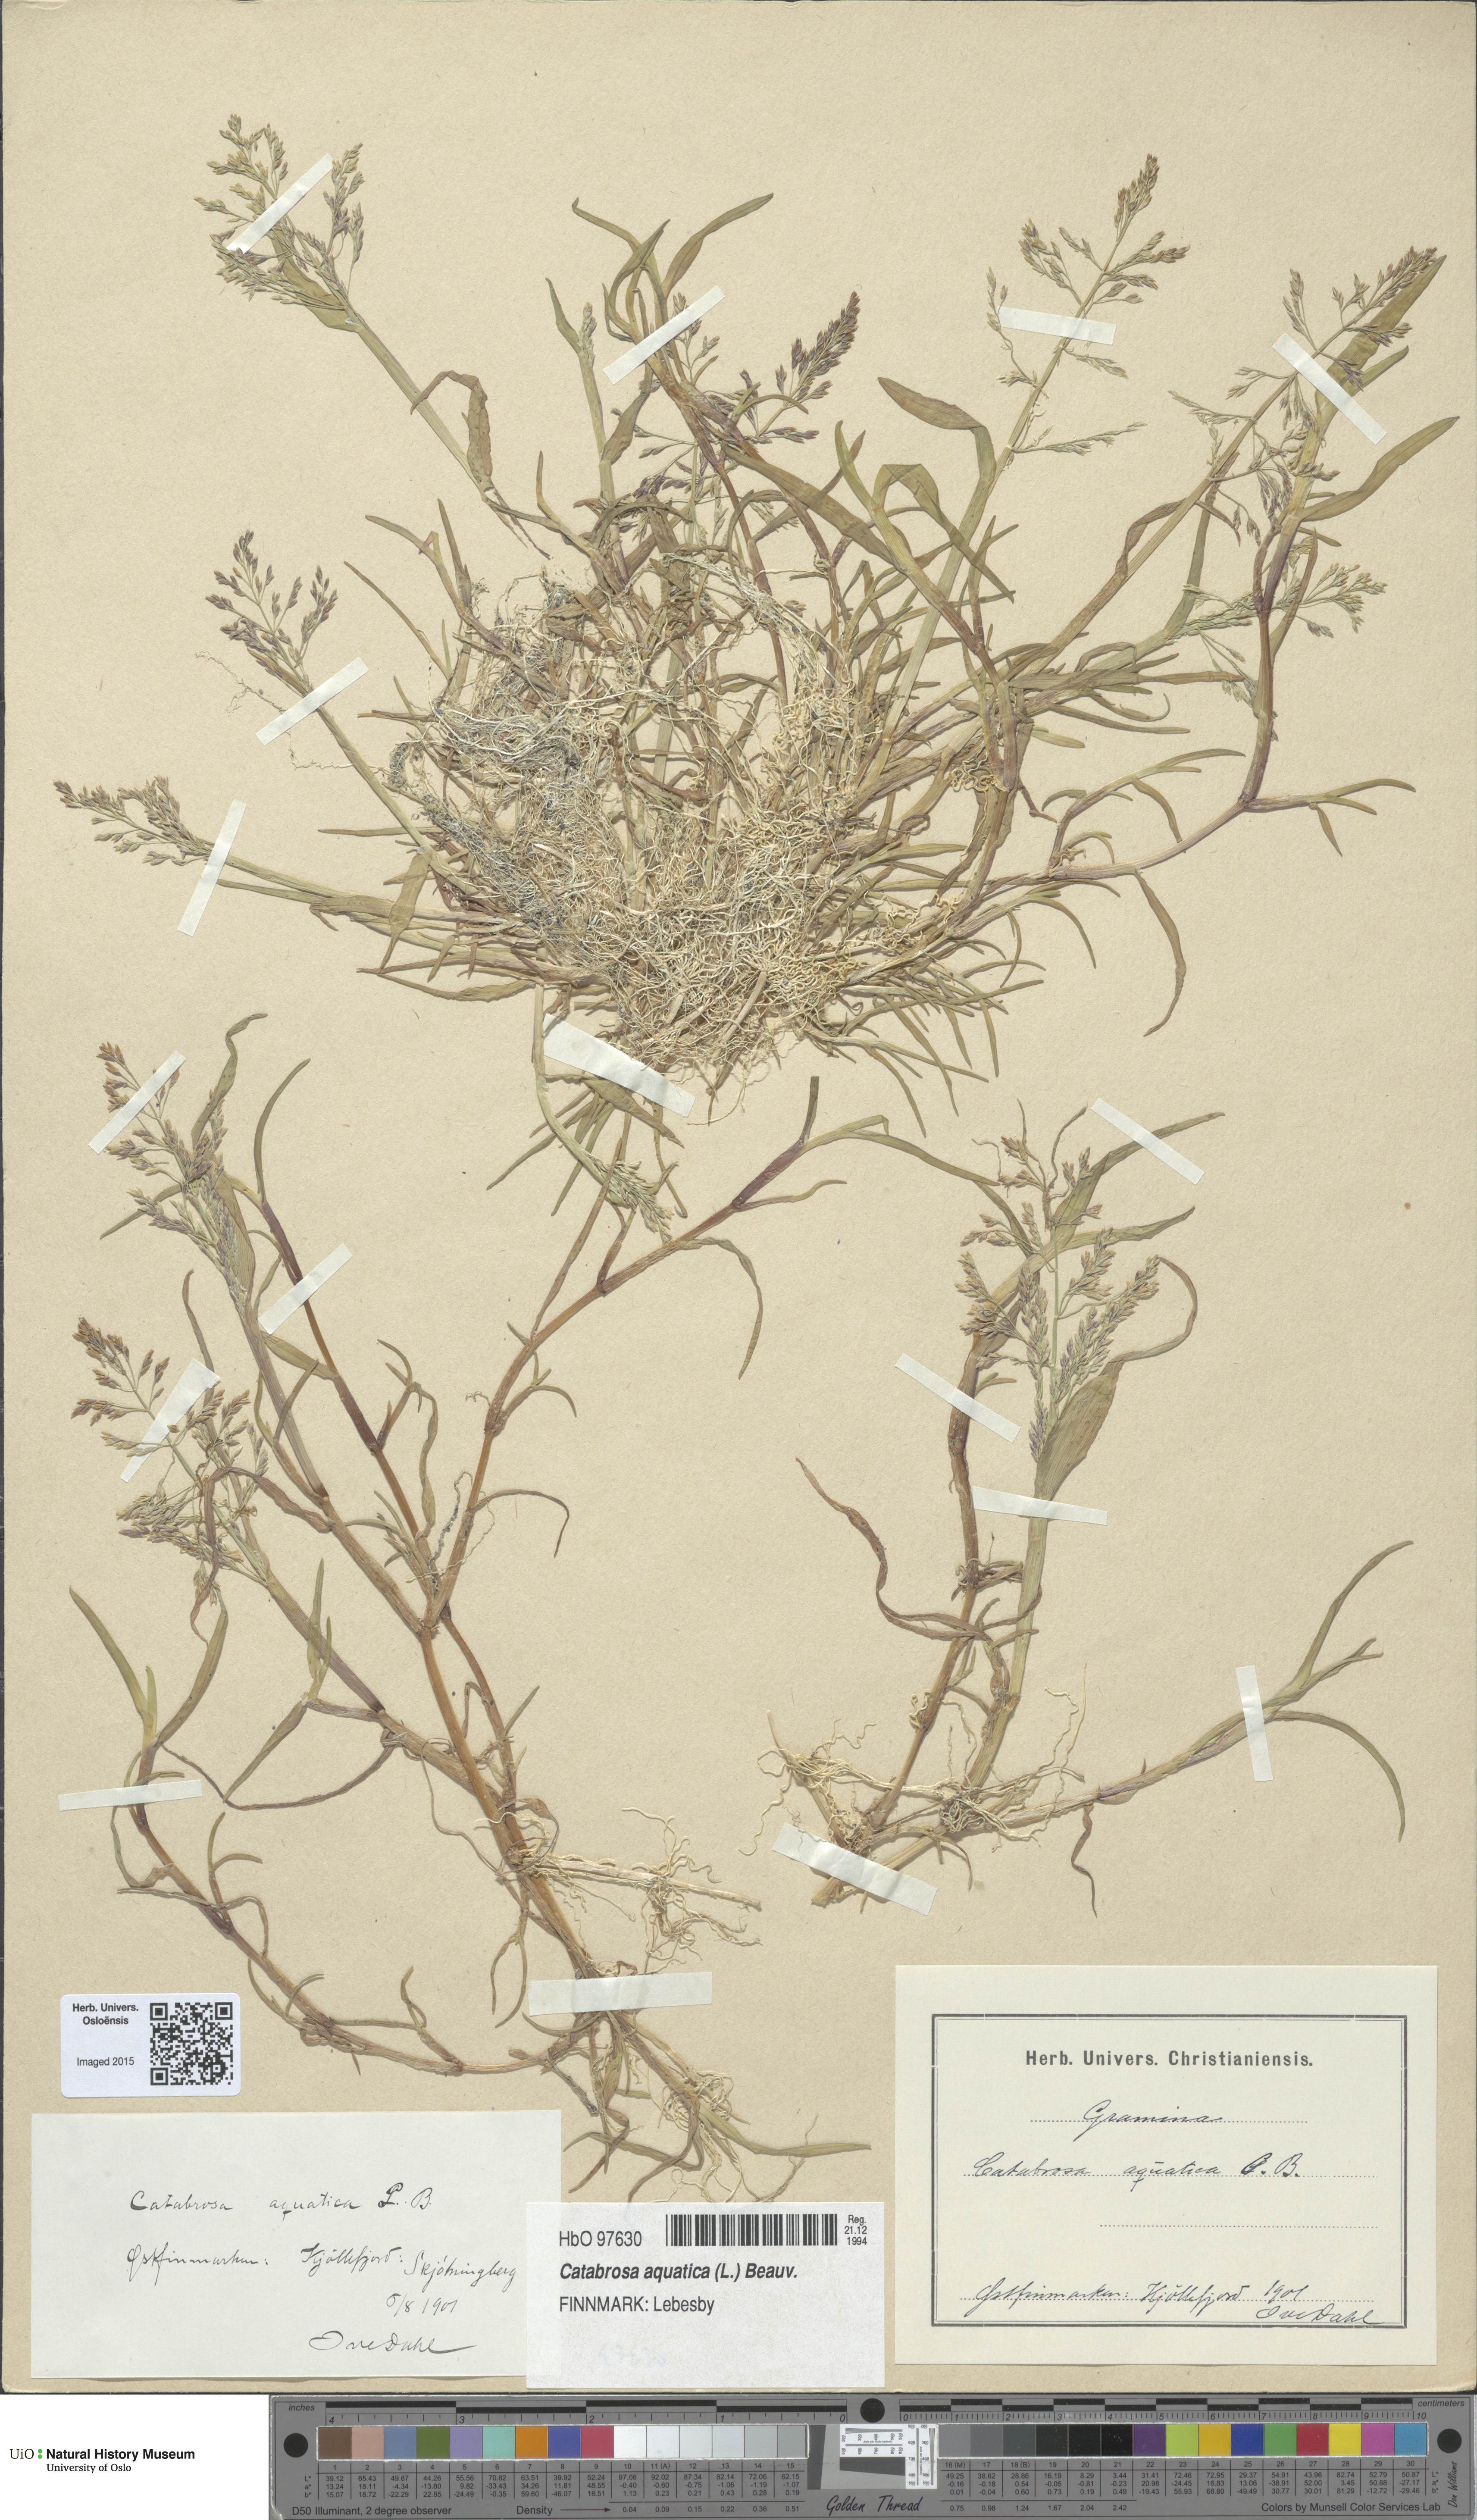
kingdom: Plantae
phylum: Tracheophyta
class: Liliopsida
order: Poales
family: Poaceae
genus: Catabrosa
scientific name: Catabrosa aquatica
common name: Whorl-grass
